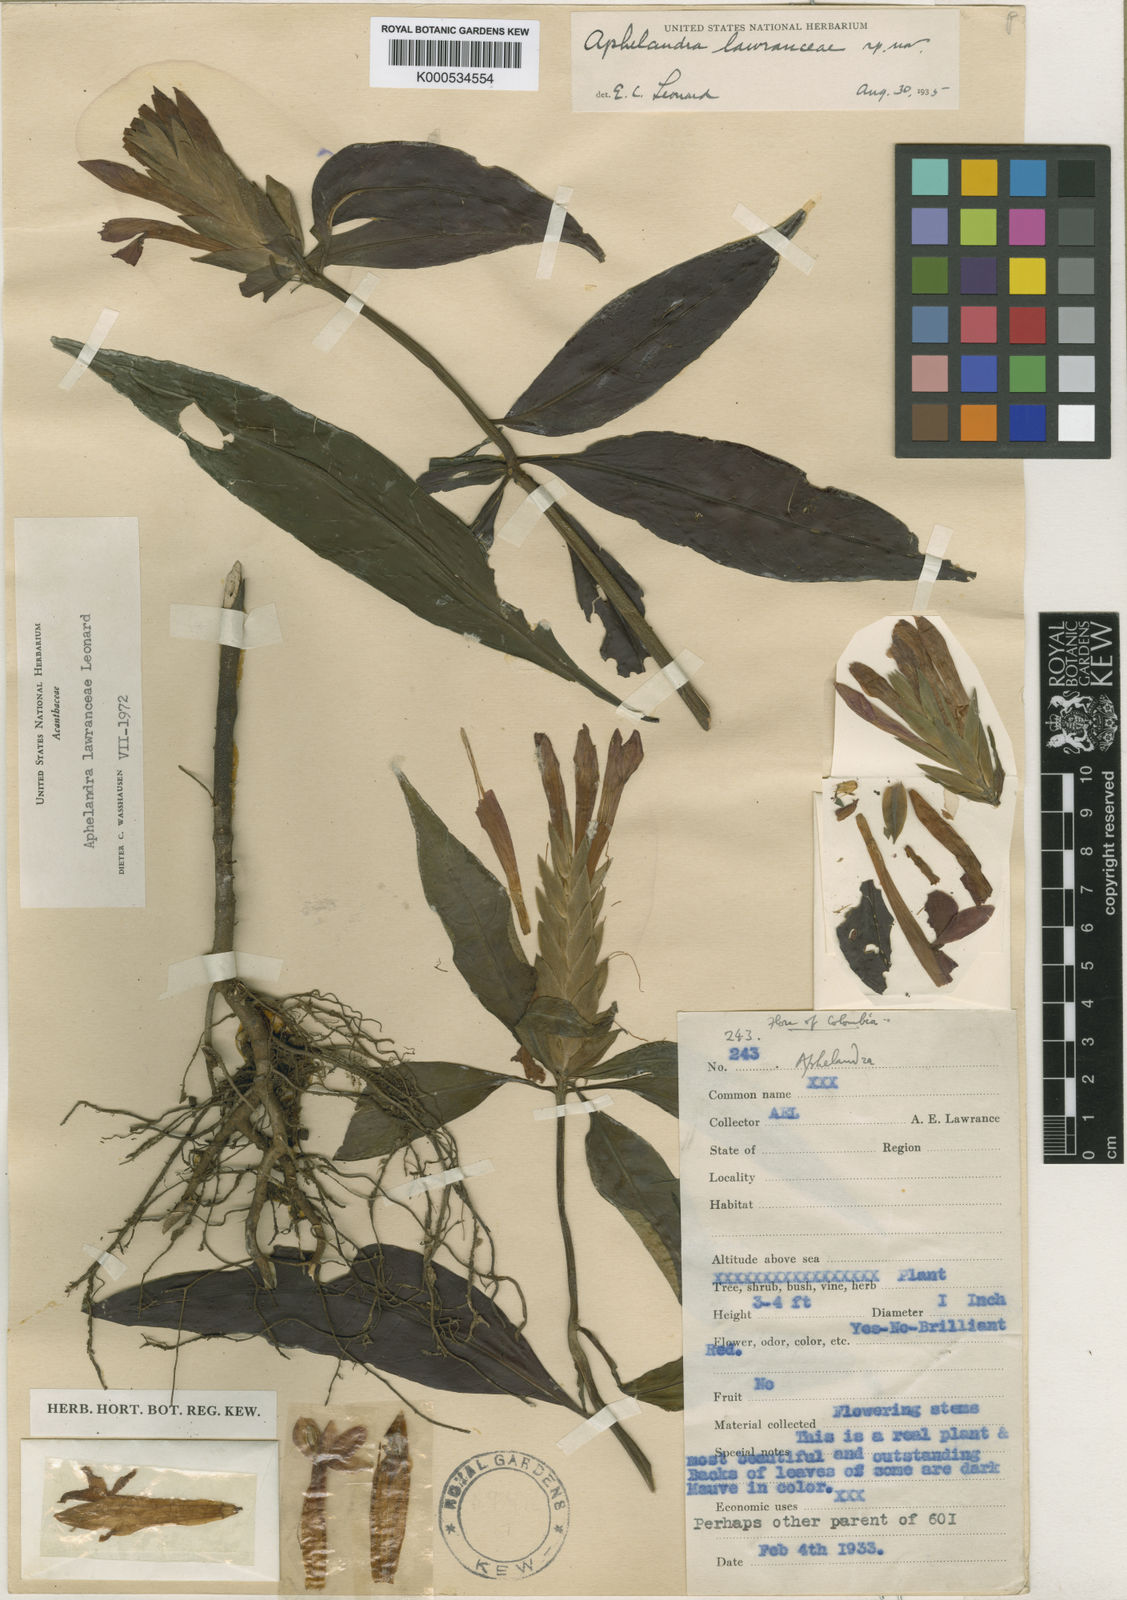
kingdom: Plantae
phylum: Tracheophyta
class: Magnoliopsida
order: Lamiales
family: Acanthaceae
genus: Aphelandra
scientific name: Aphelandra lawranceae
